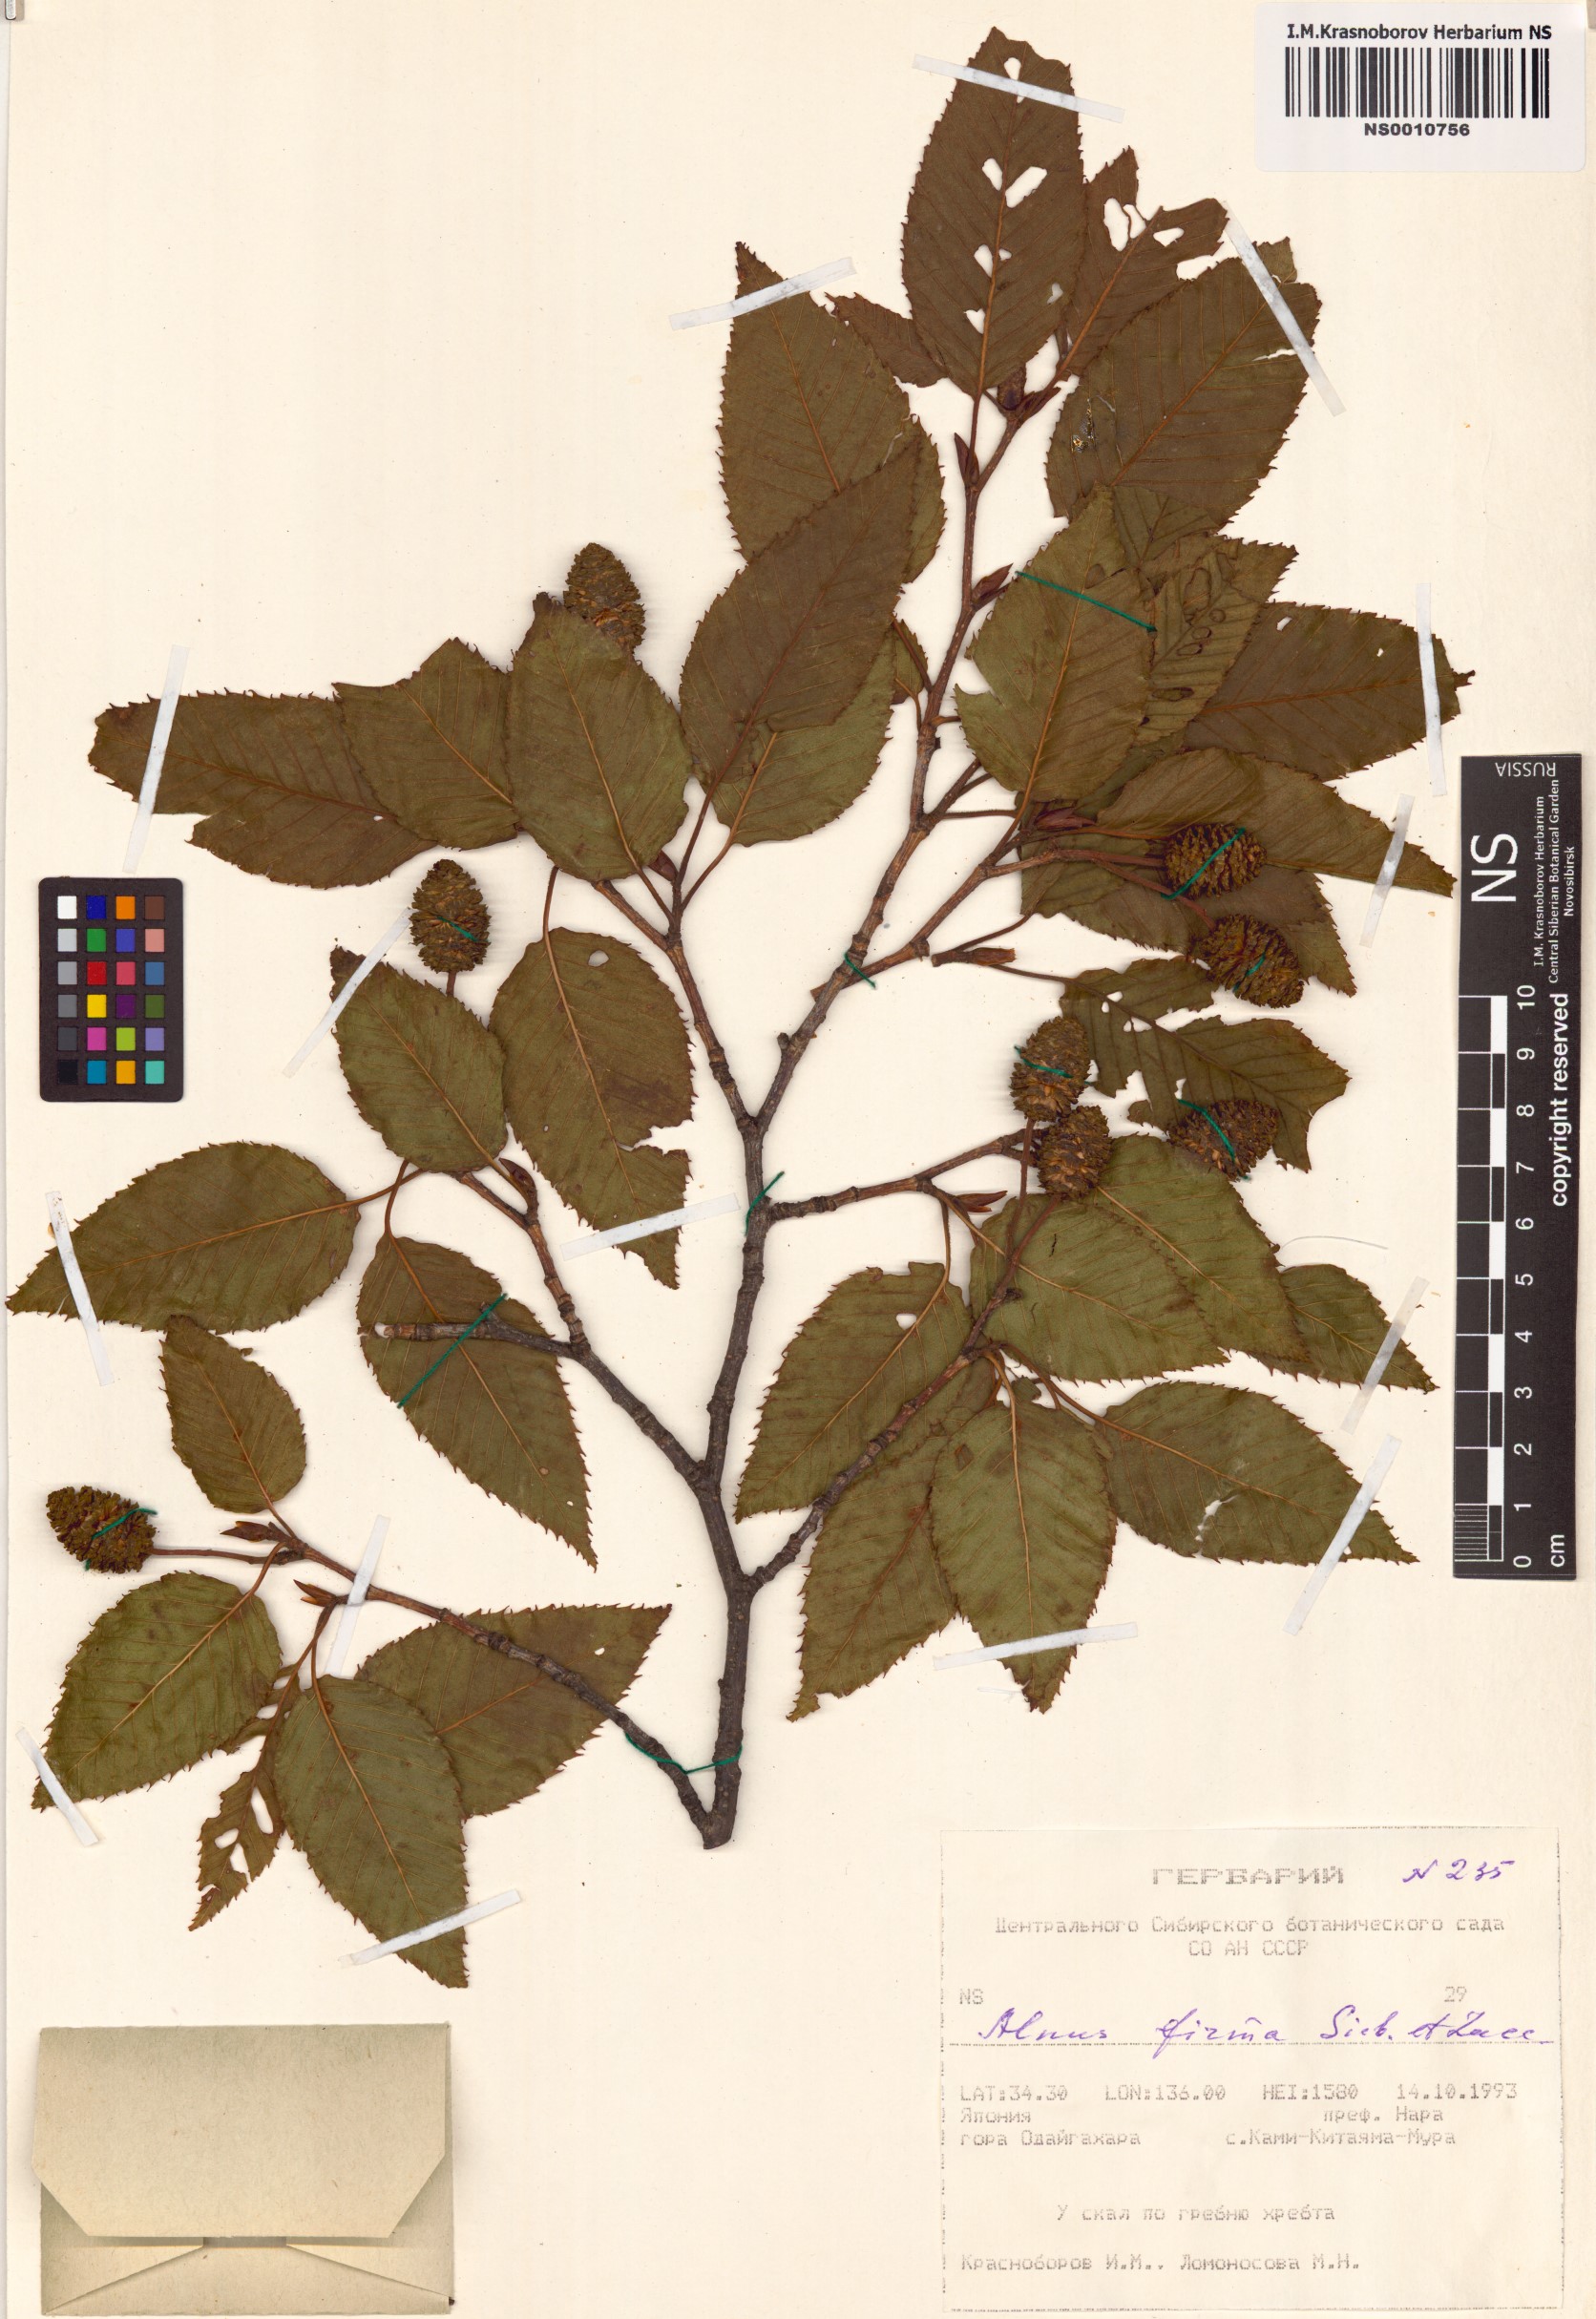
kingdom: Plantae
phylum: Tracheophyta
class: Magnoliopsida
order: Fagales
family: Betulaceae
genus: Alnus
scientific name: Alnus firma
